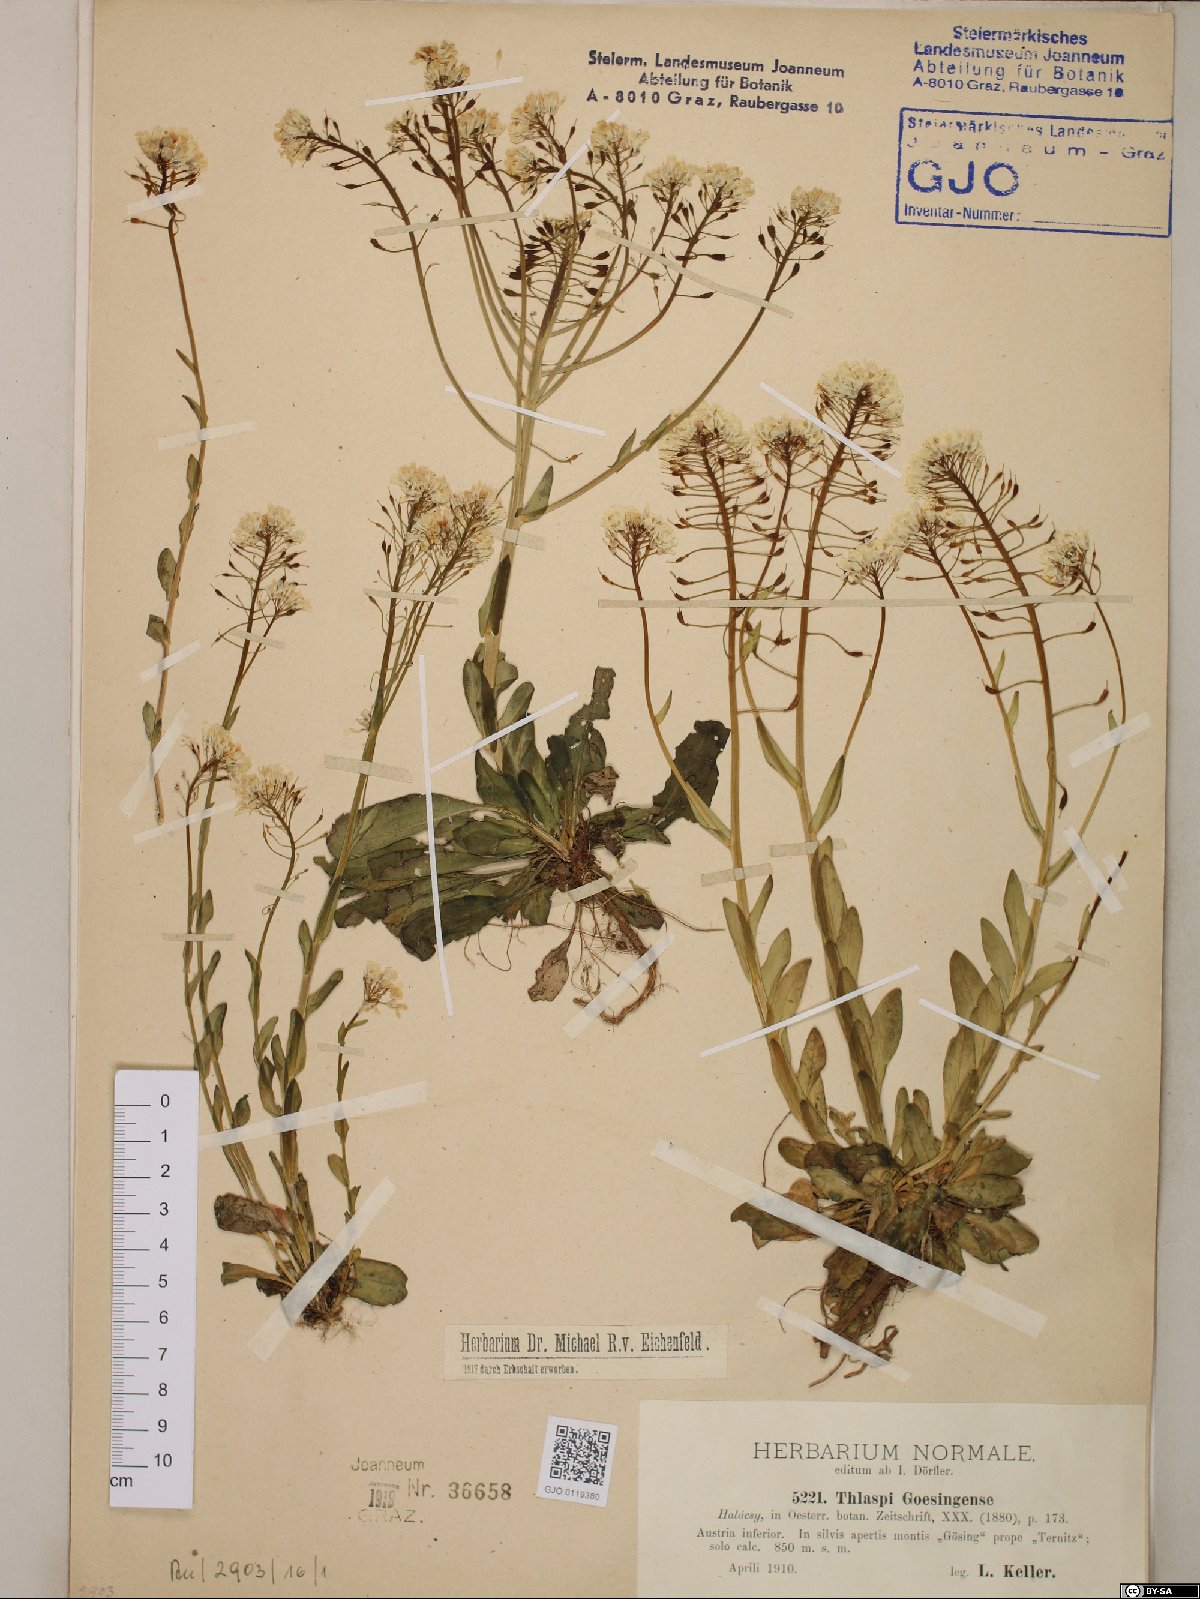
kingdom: Plantae
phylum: Tracheophyta
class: Magnoliopsida
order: Brassicales
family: Brassicaceae
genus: Noccaea
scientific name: Noccaea goesingensis
